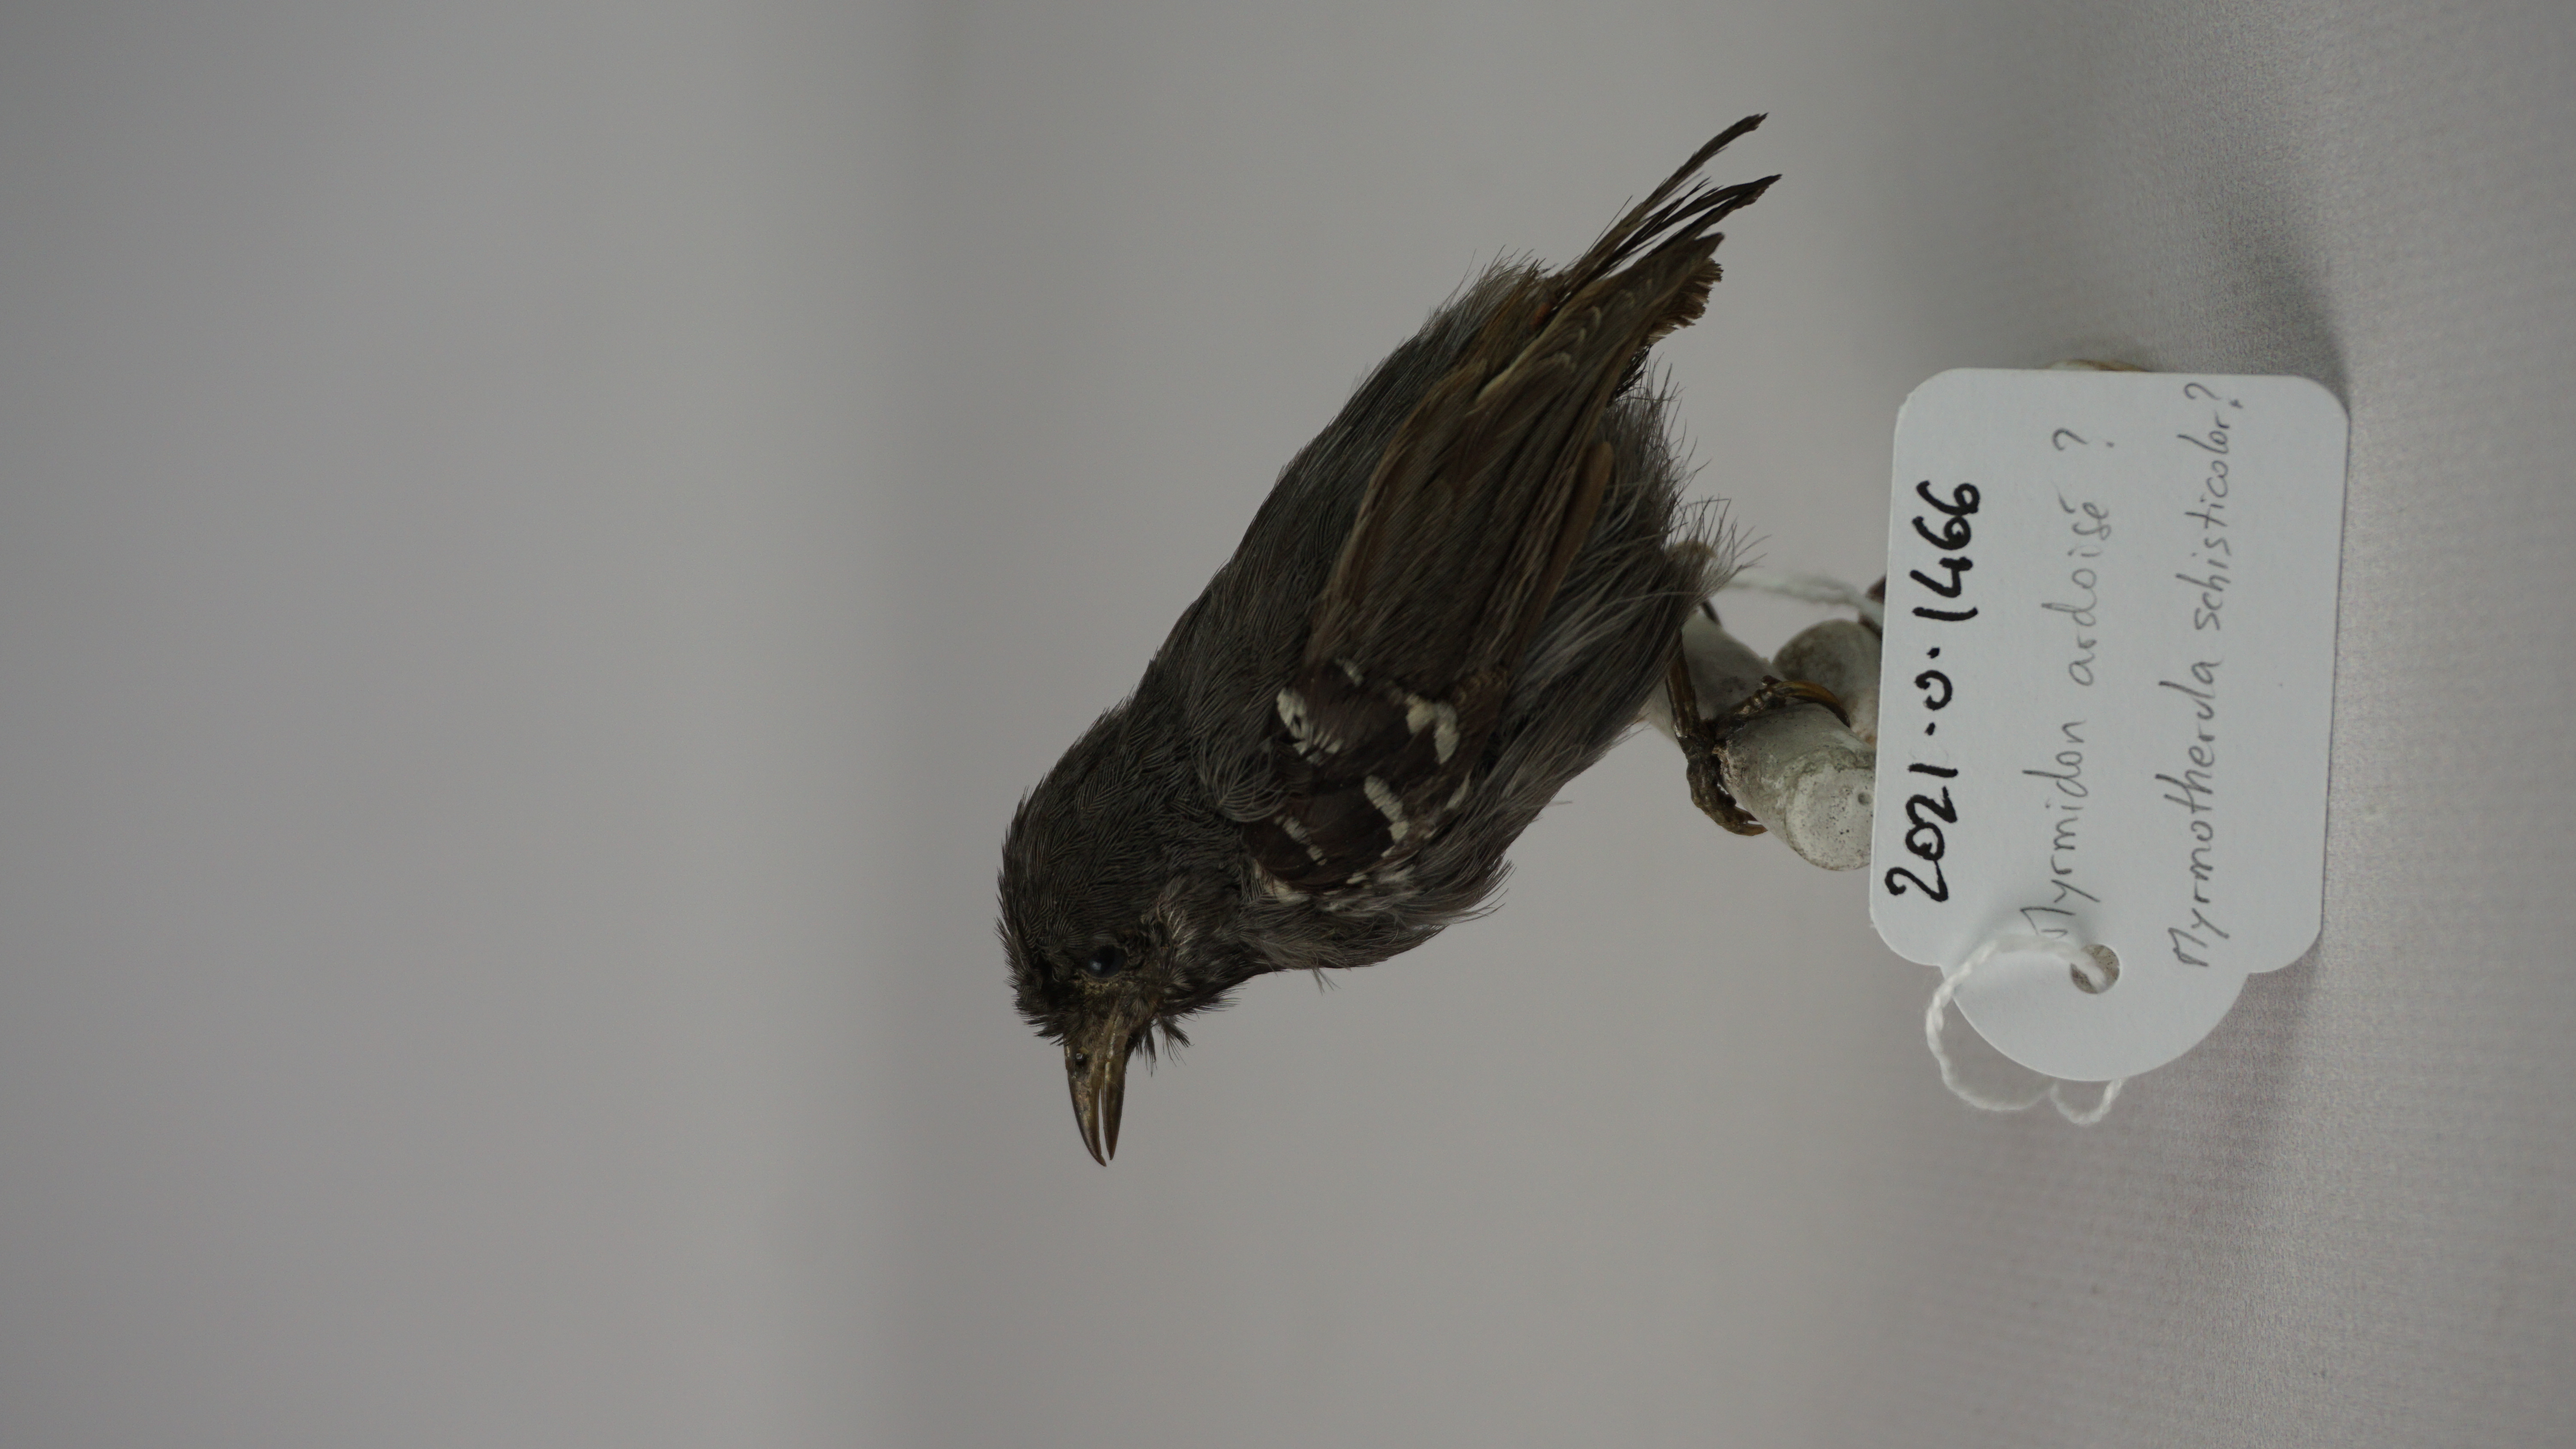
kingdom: Animalia
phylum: Chordata
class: Aves
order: Passeriformes
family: Thamnophilidae
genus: Myrmotherula
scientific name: Myrmotherula schisticolor
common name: Slaty antwren
